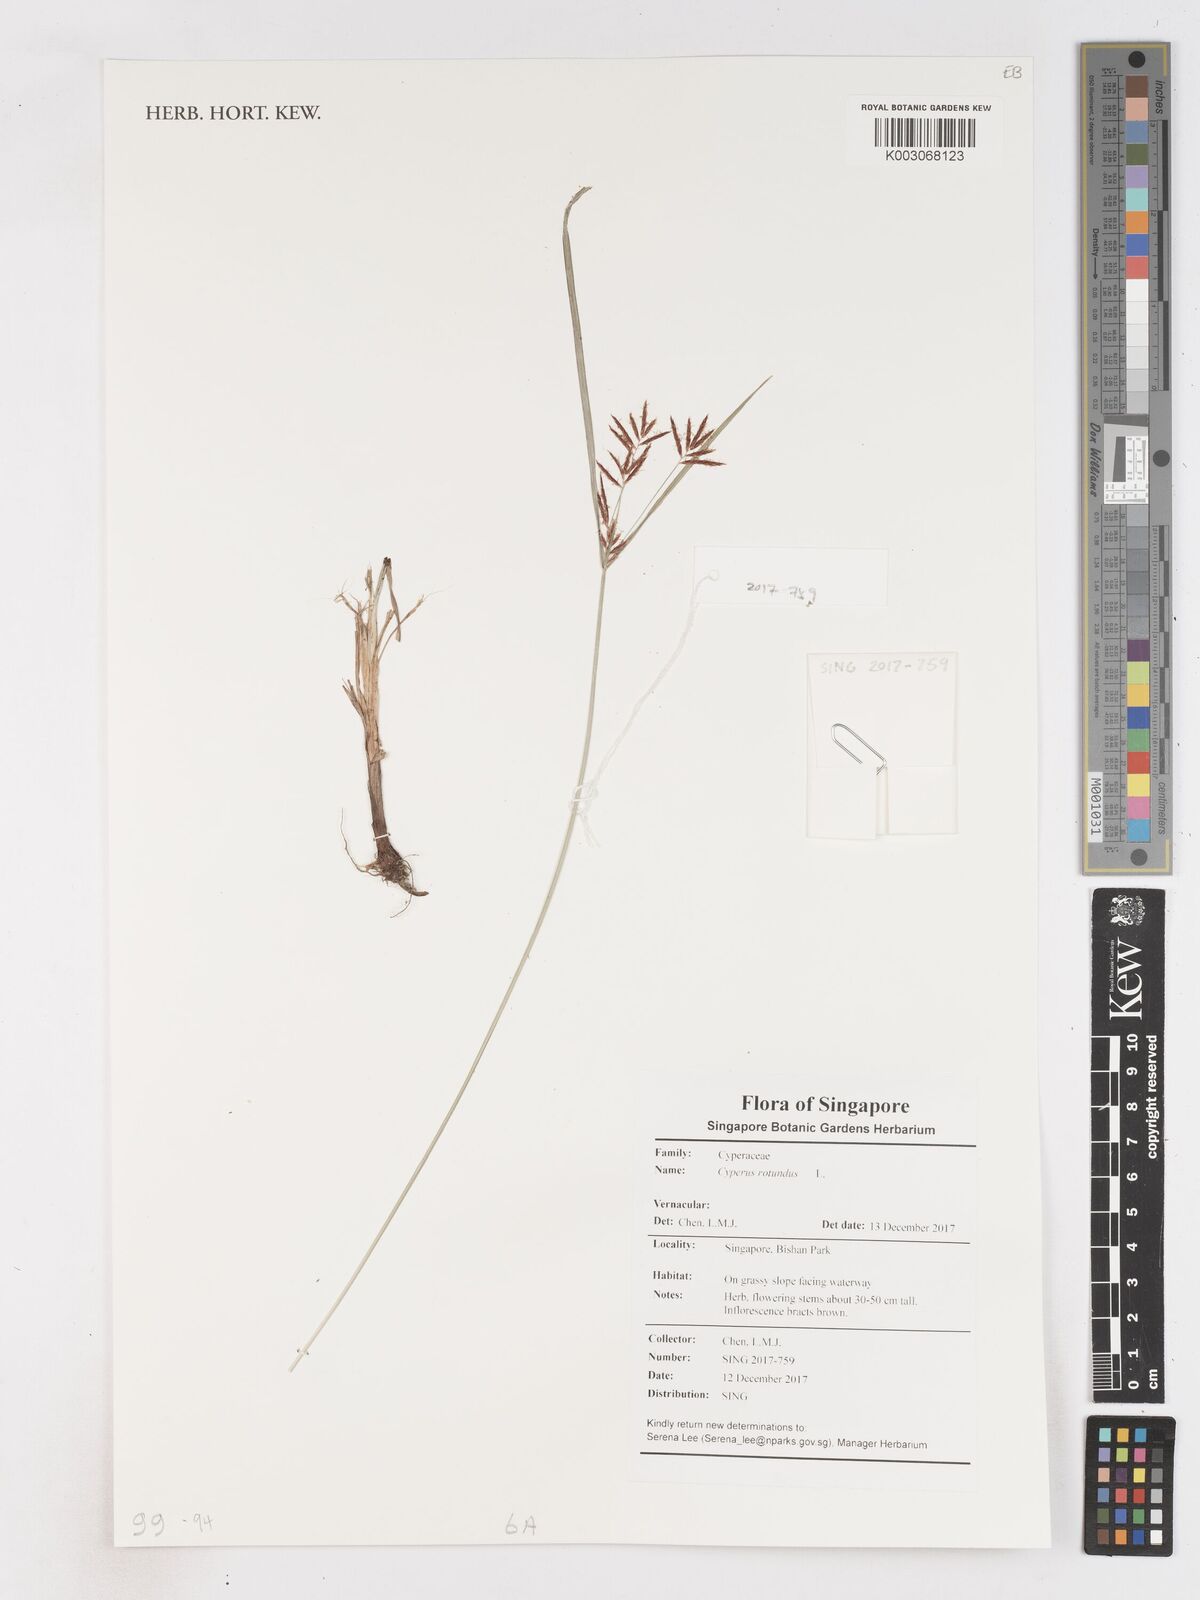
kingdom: Plantae
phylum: Tracheophyta
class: Liliopsida
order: Poales
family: Cyperaceae
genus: Cyperus
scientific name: Cyperus rotundus
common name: Nutgrass
